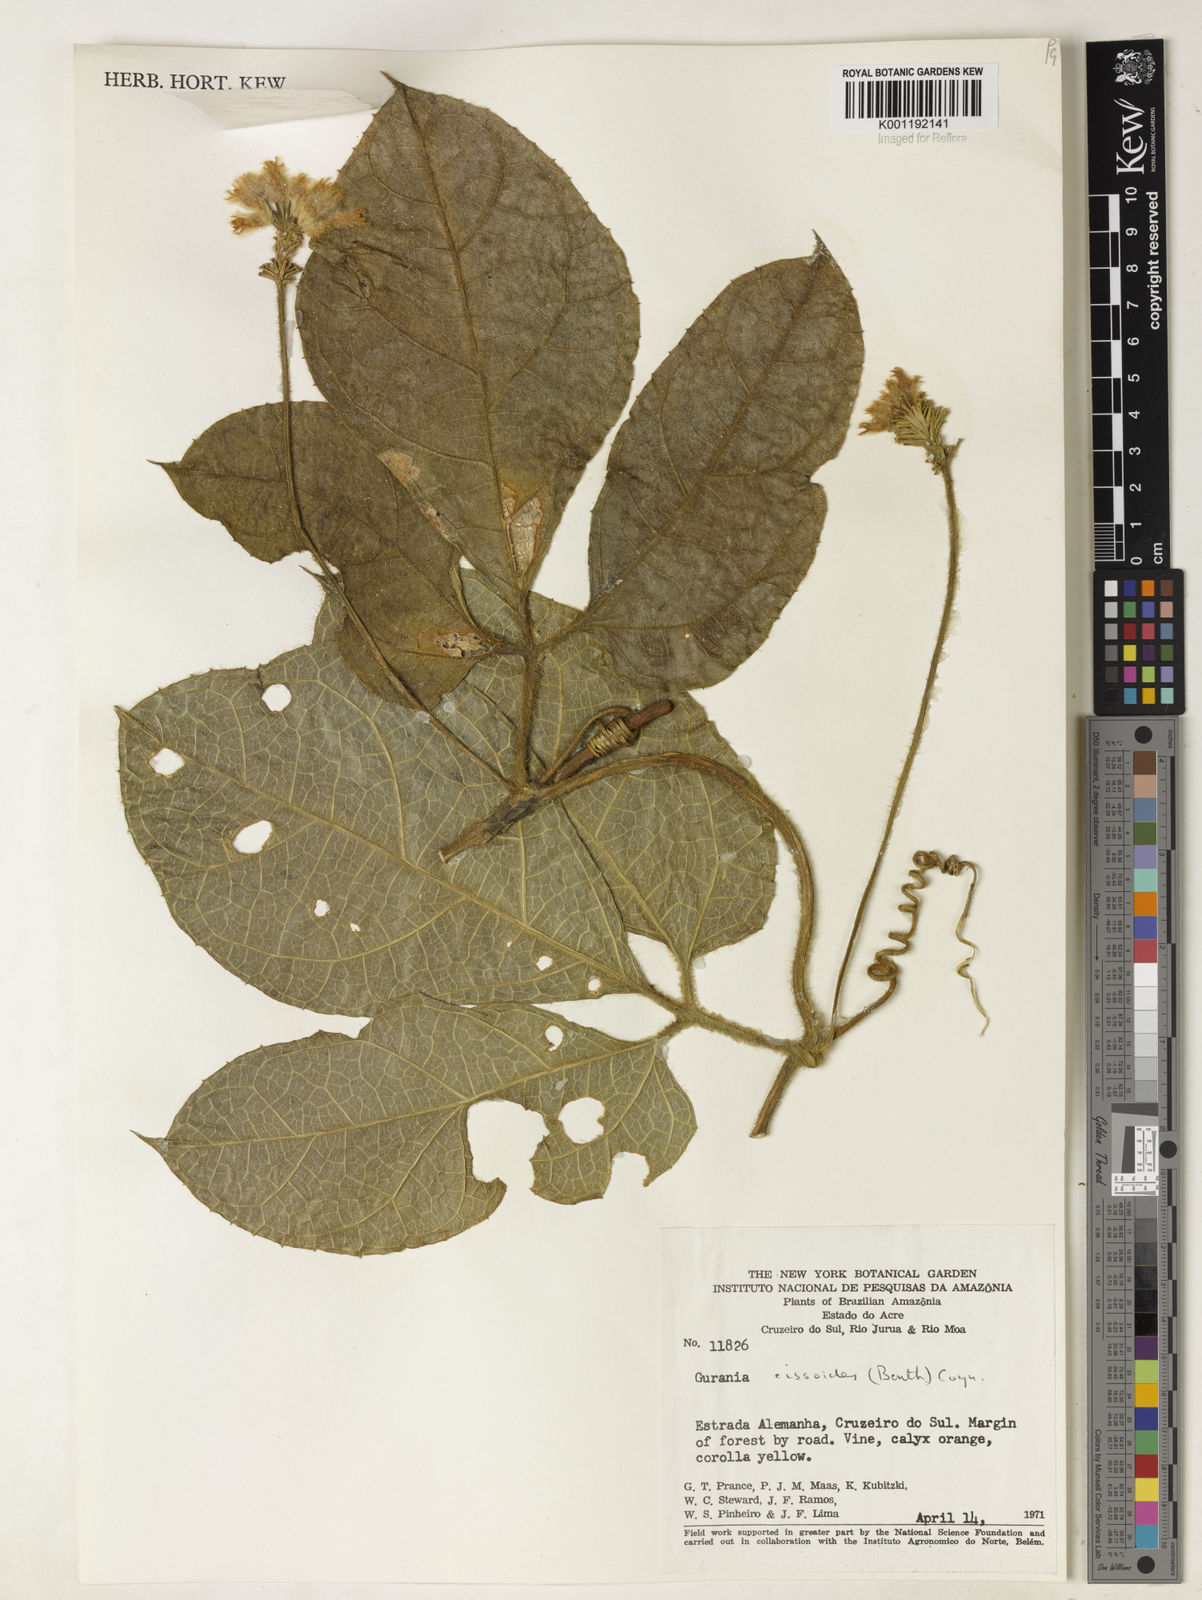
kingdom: Plantae
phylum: Tracheophyta
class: Magnoliopsida
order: Cucurbitales
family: Cucurbitaceae
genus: Gurania
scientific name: Gurania bignoniacea
